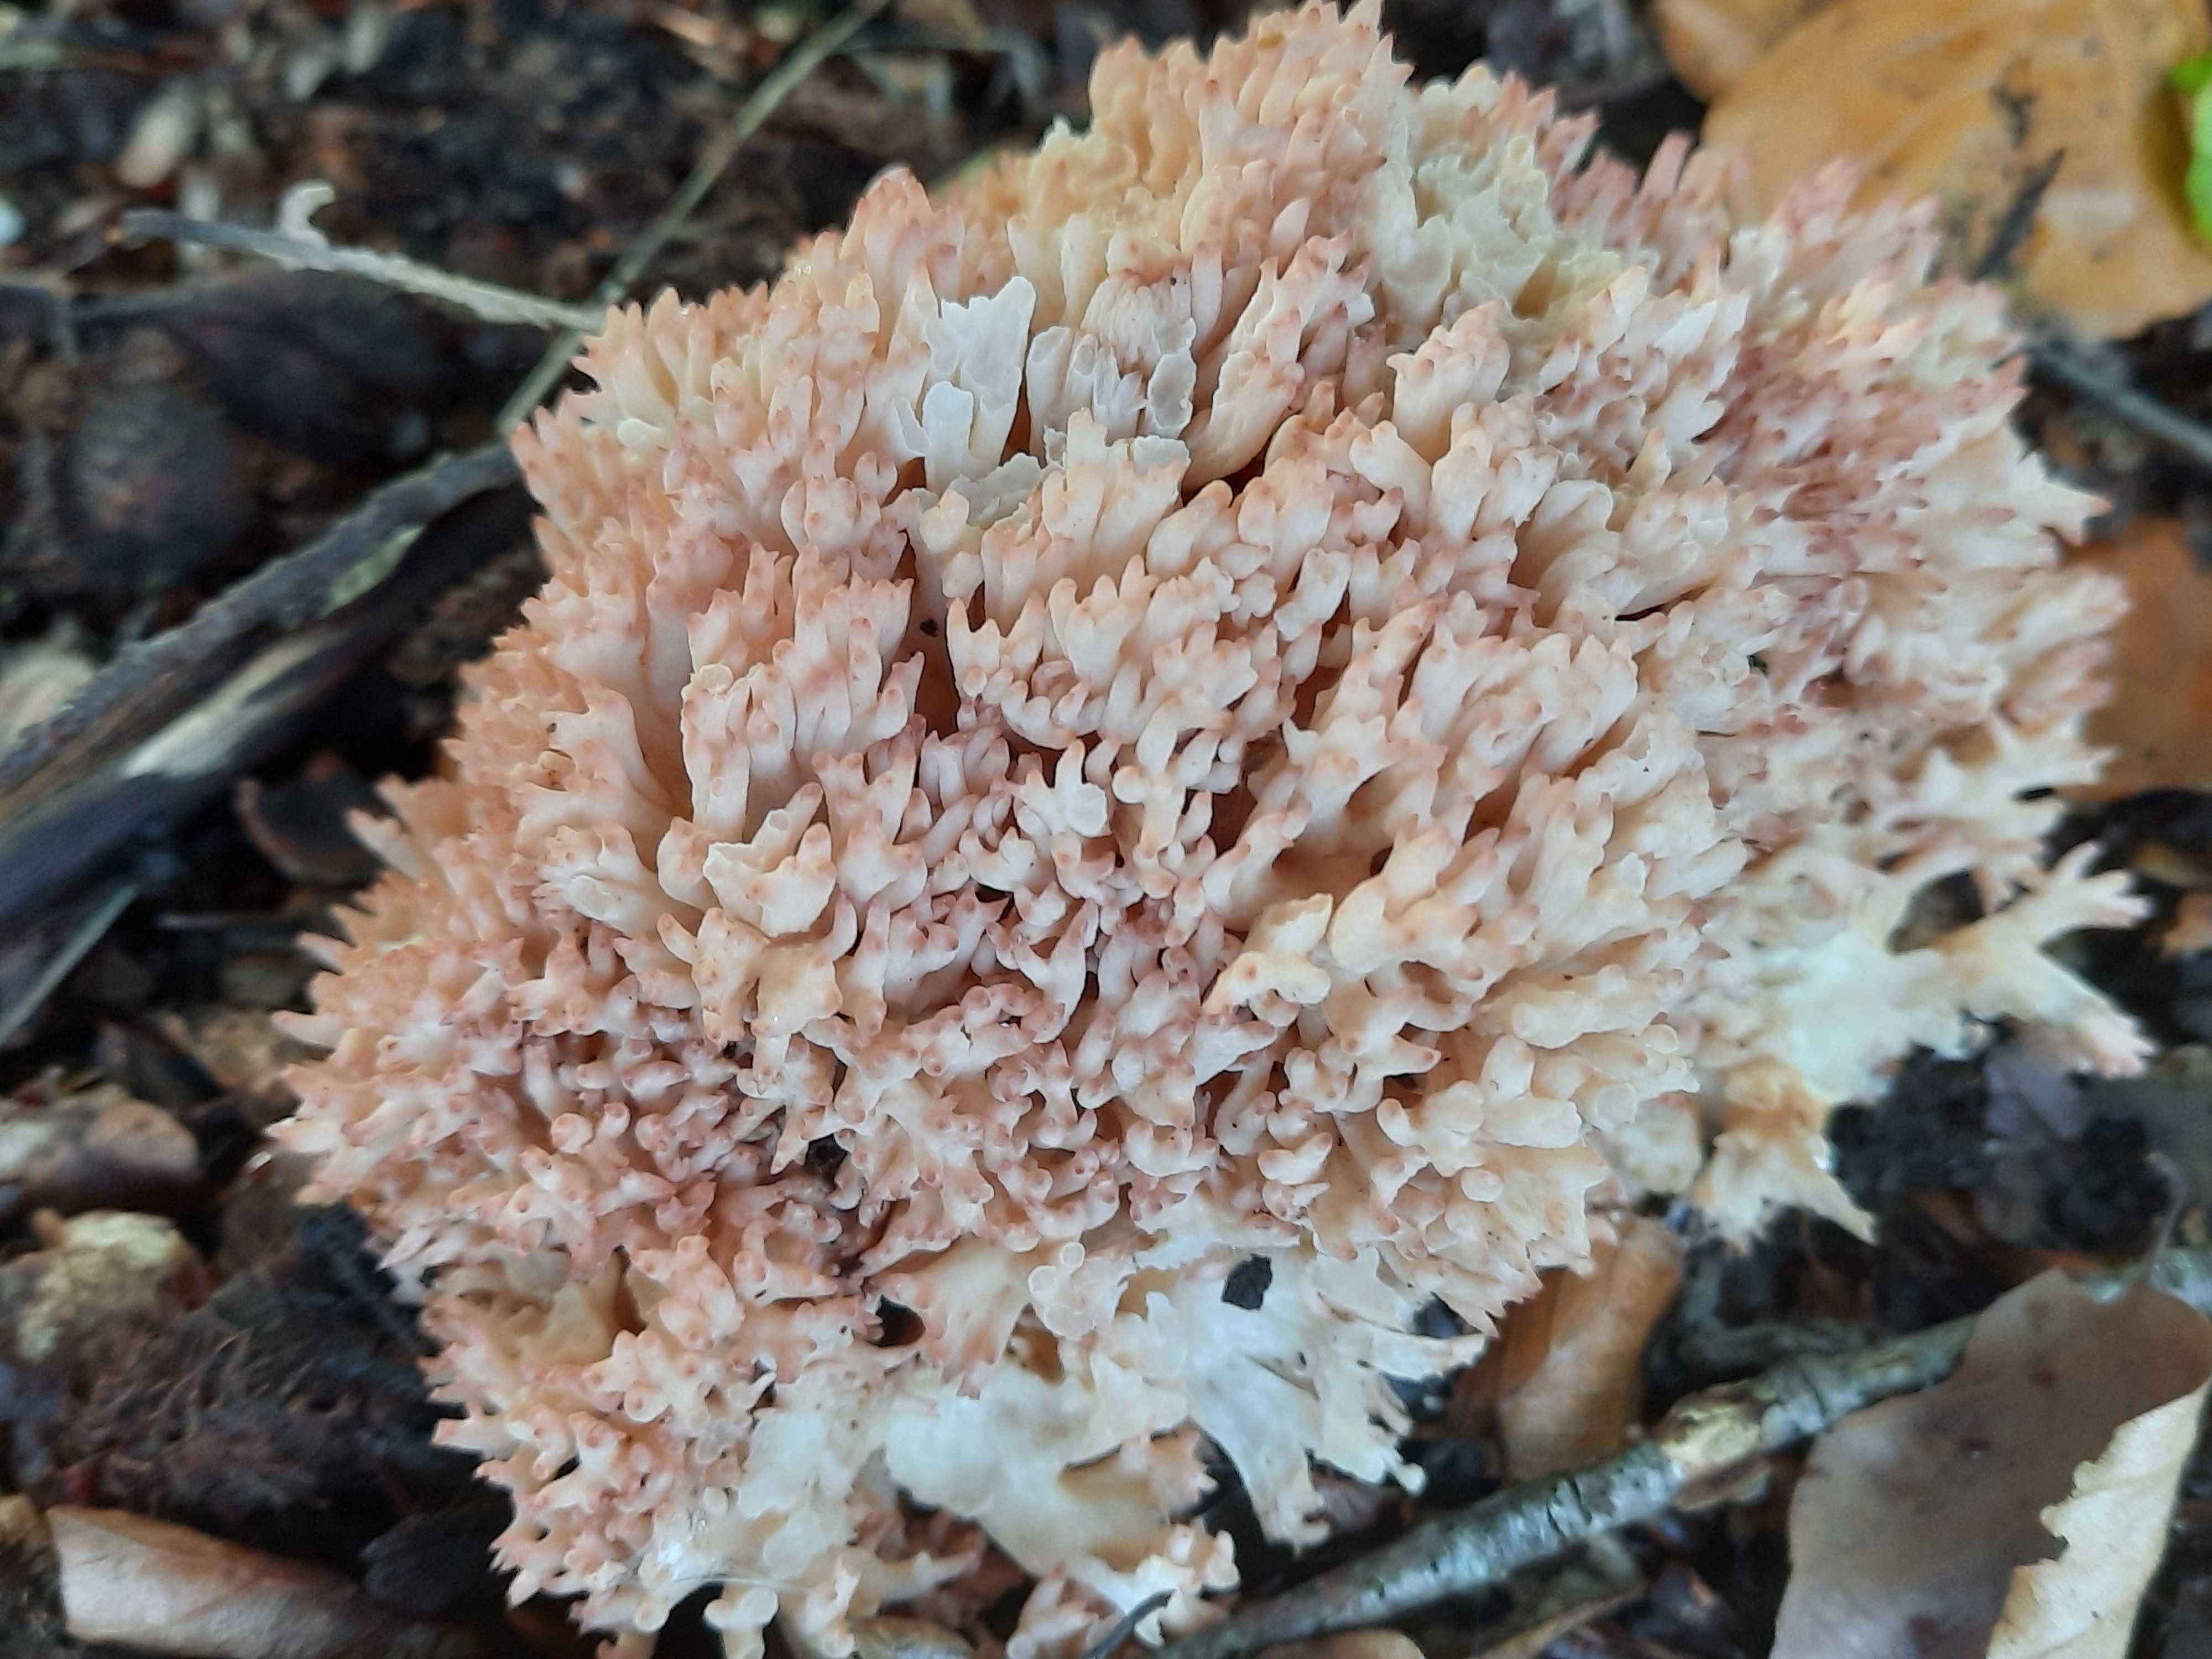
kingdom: Fungi
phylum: Basidiomycota
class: Agaricomycetes
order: Gomphales
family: Gomphaceae
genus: Ramaria
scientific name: Ramaria botrytis
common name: drue-koralsvamp
